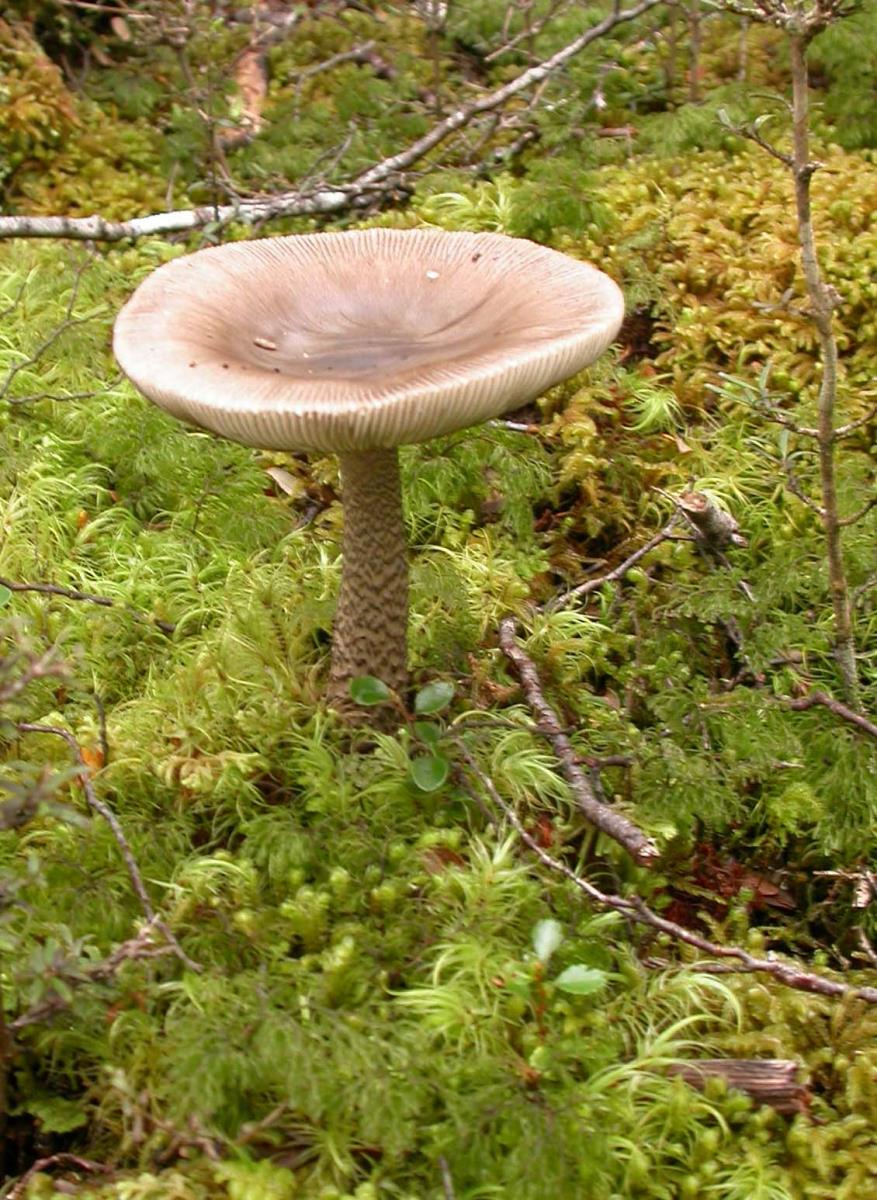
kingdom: Fungi
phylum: Basidiomycota
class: Agaricomycetes
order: Agaricales
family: Amanitaceae
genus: Amanita
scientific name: Amanita drummondii
